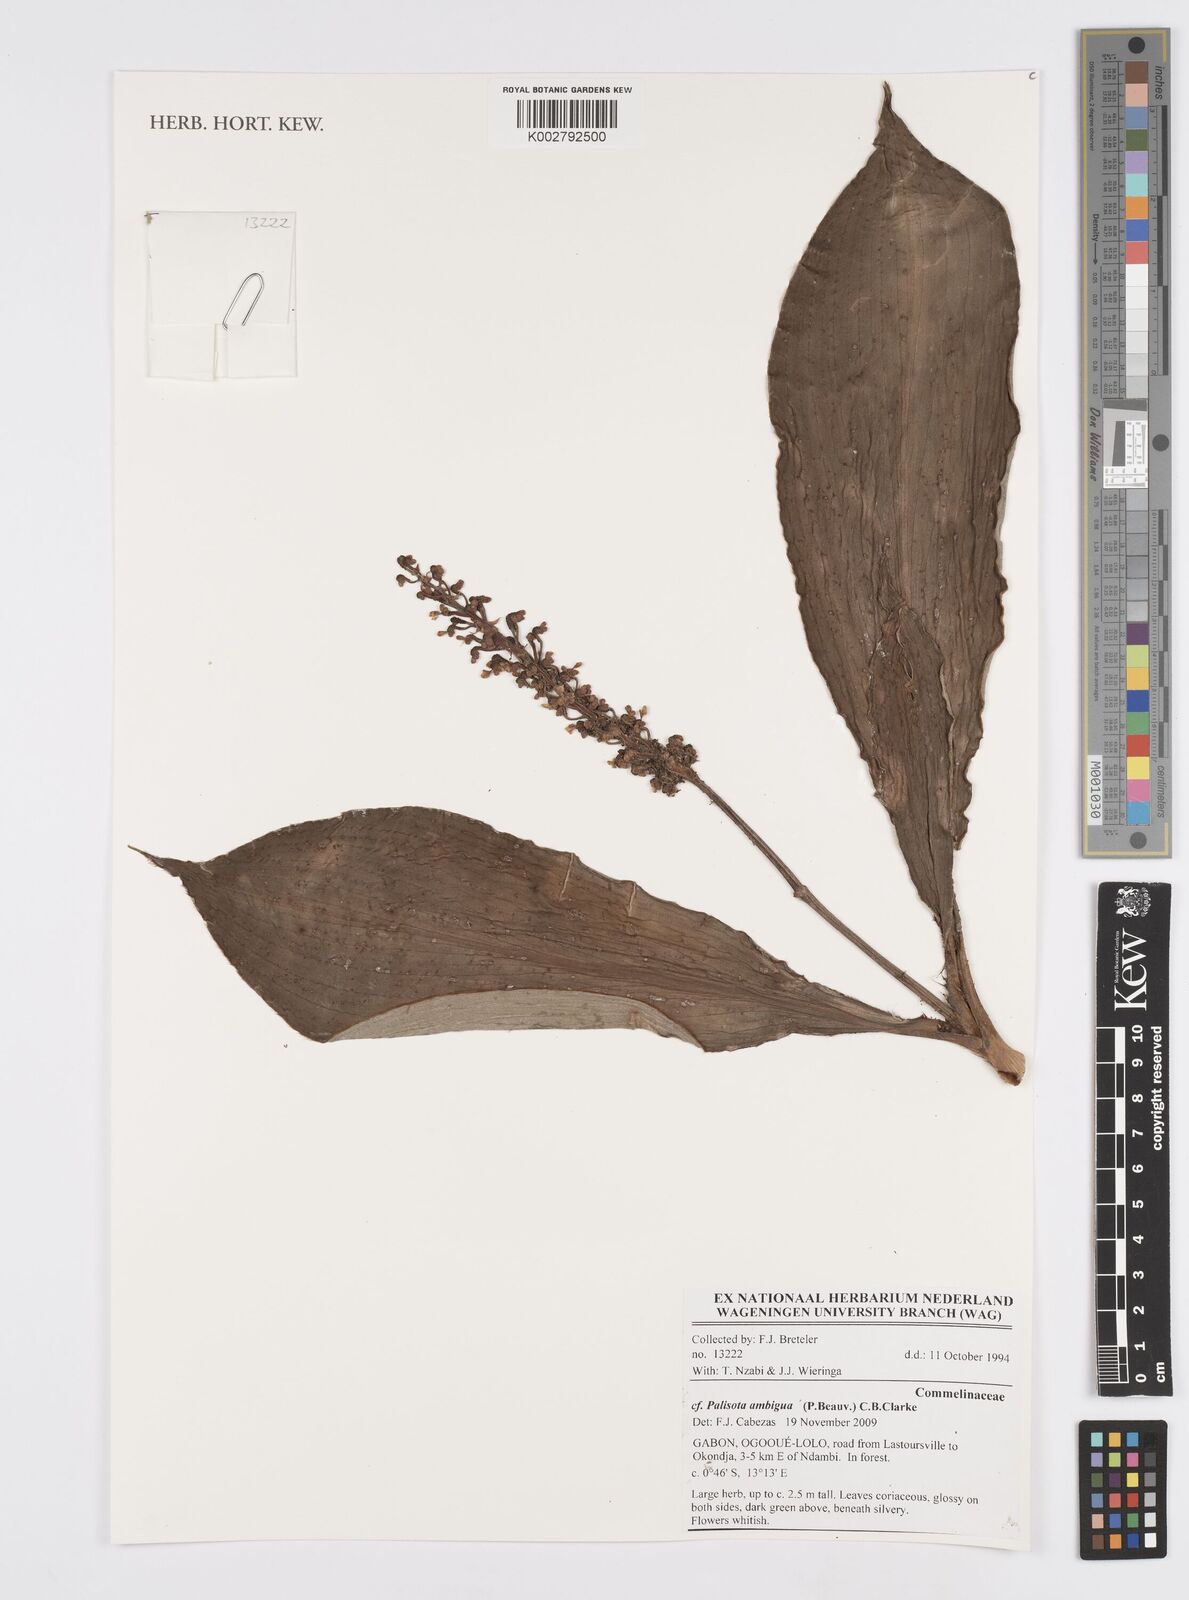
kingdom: Plantae
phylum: Tracheophyta
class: Liliopsida
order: Commelinales
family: Commelinaceae
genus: Palisota
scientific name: Palisota ambigua
